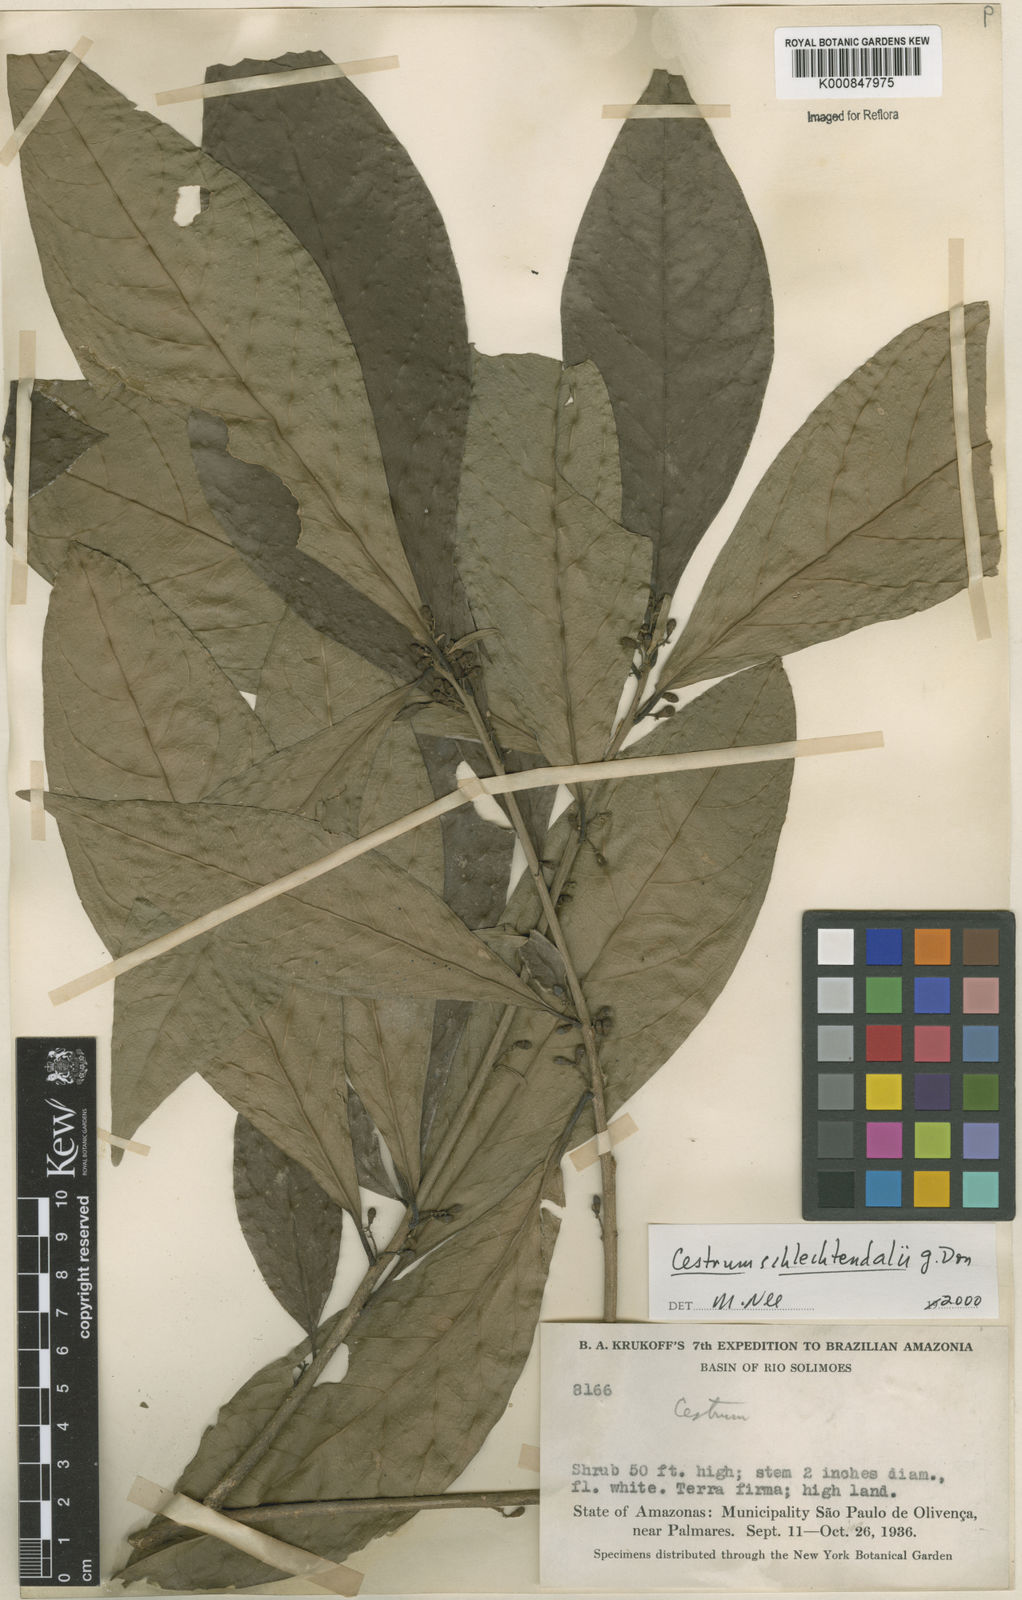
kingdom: Plantae
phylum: Tracheophyta
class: Magnoliopsida
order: Solanales
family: Solanaceae
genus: Cestrum
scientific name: Cestrum schlechtendalii
